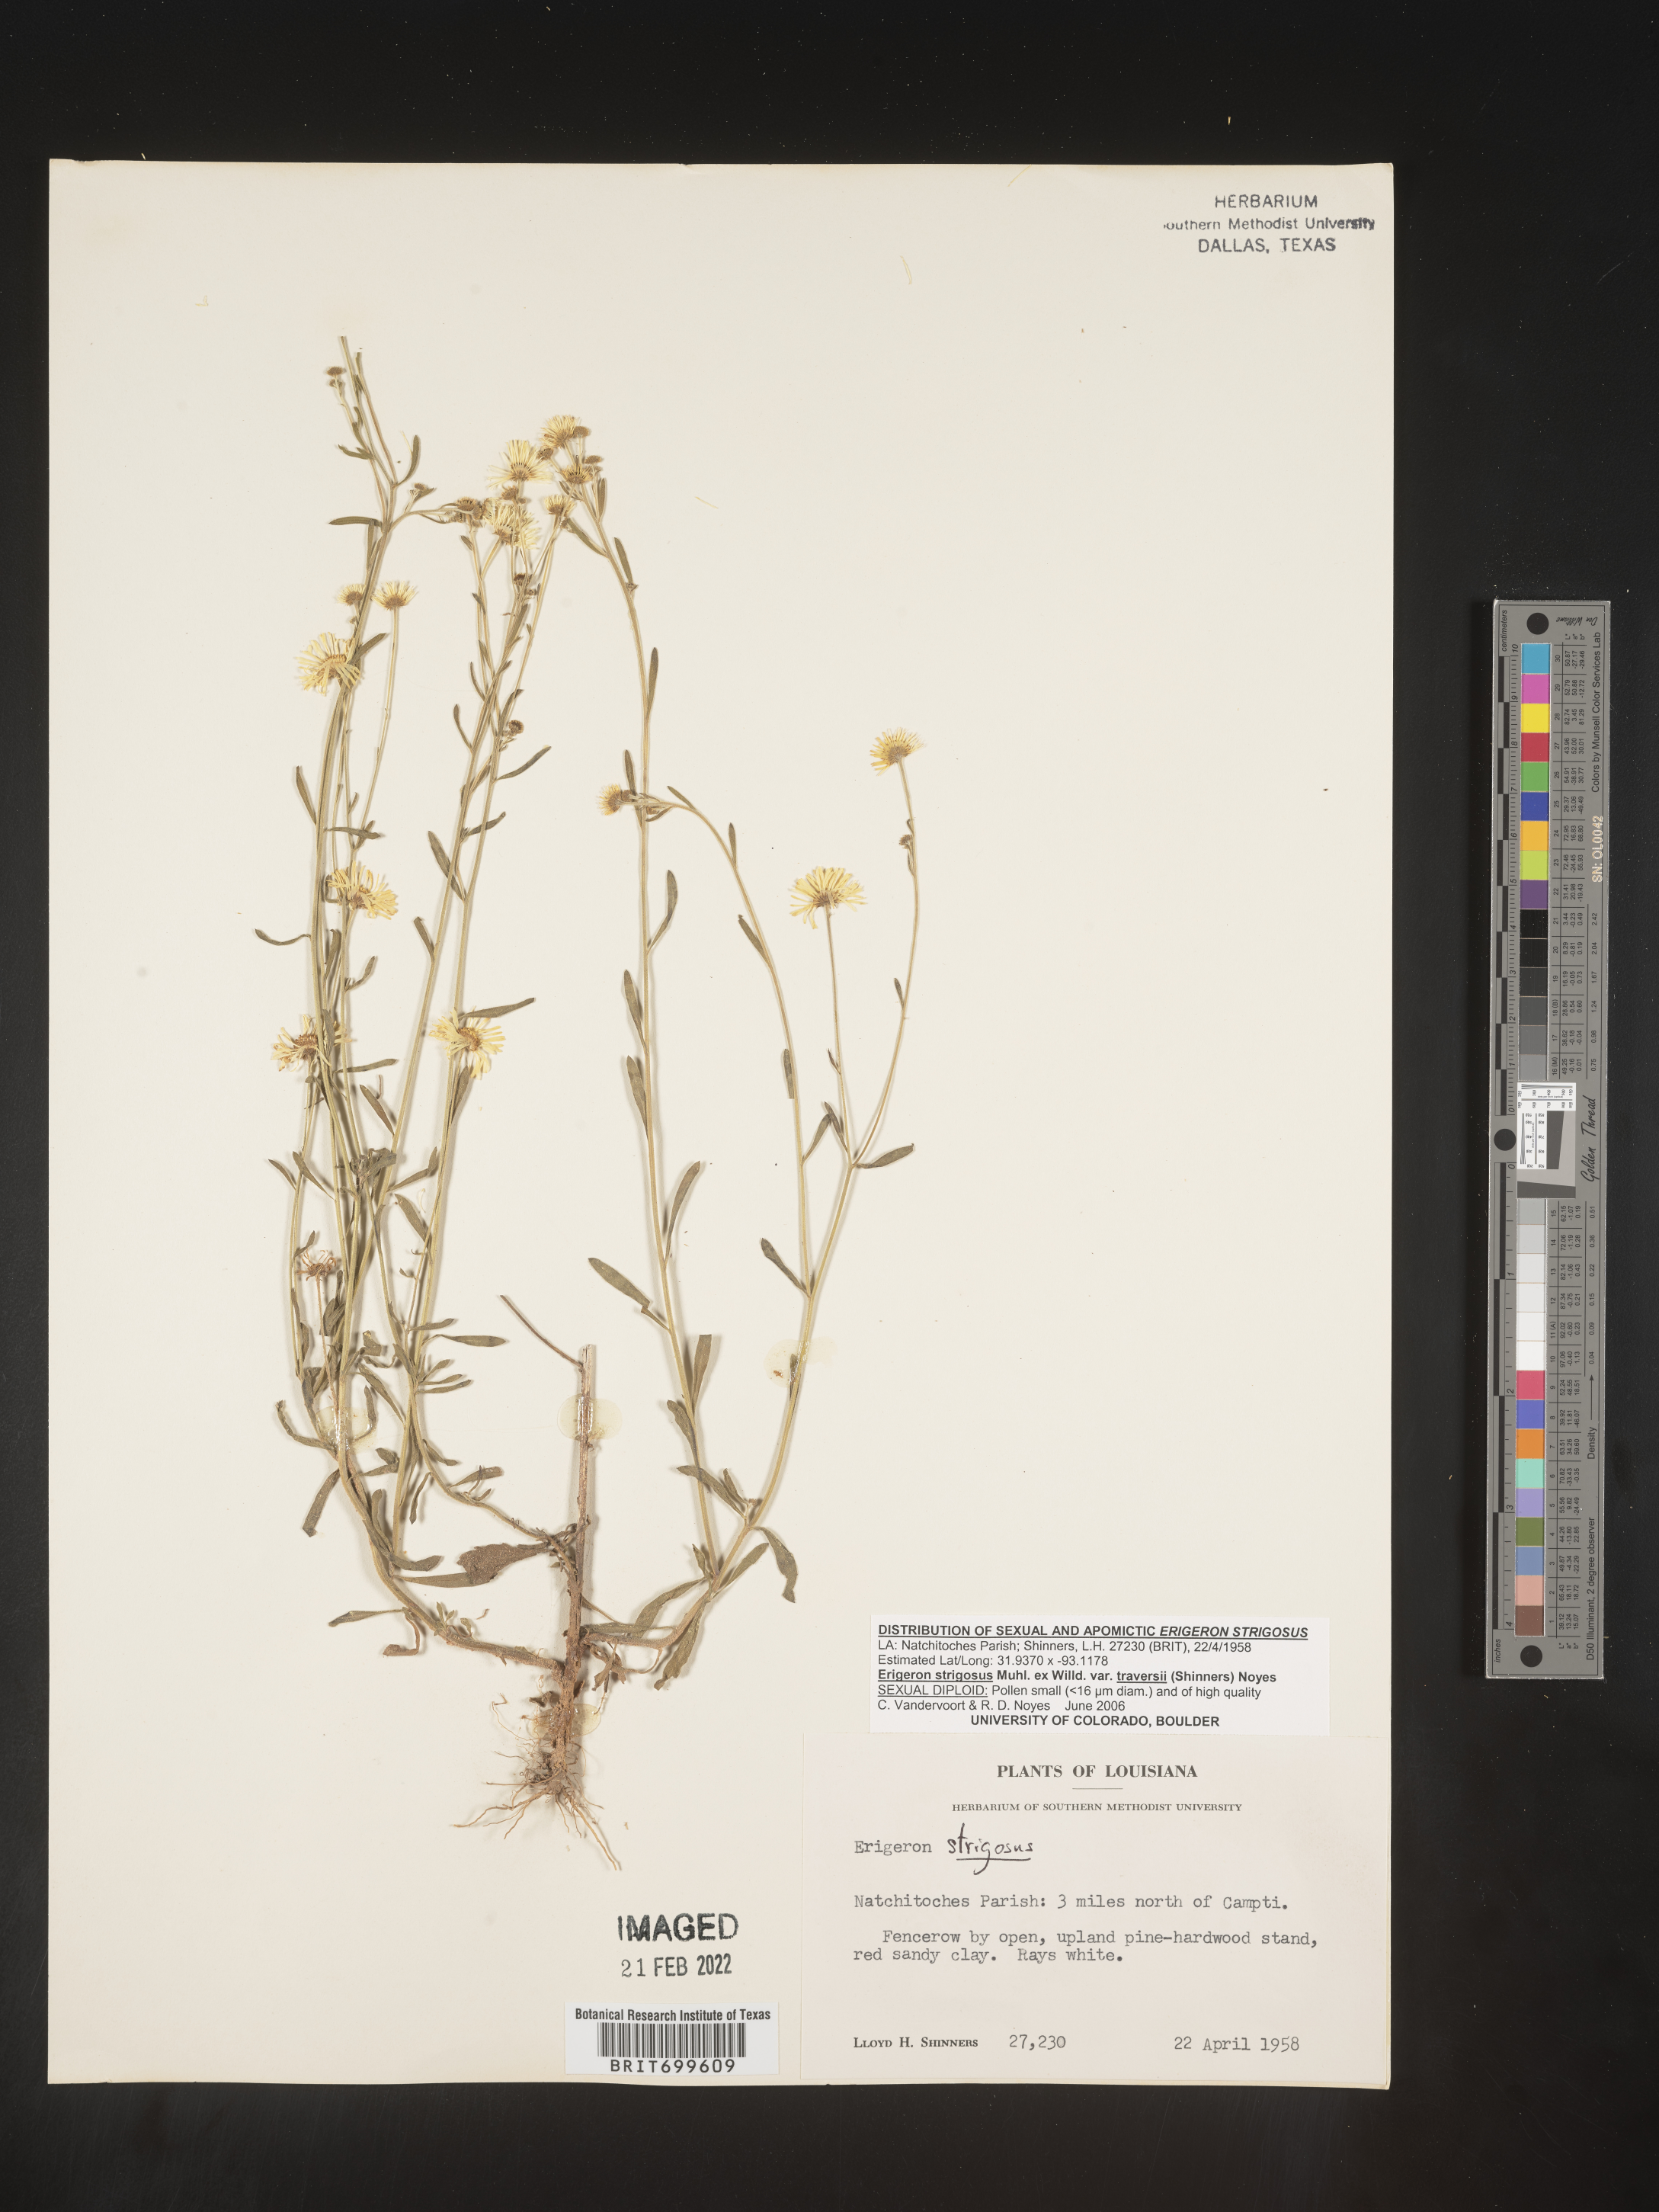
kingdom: Plantae
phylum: Tracheophyta
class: Magnoliopsida
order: Asterales
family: Asteraceae
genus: Erigeron
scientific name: Erigeron strigosus
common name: Common eastern fleabane
